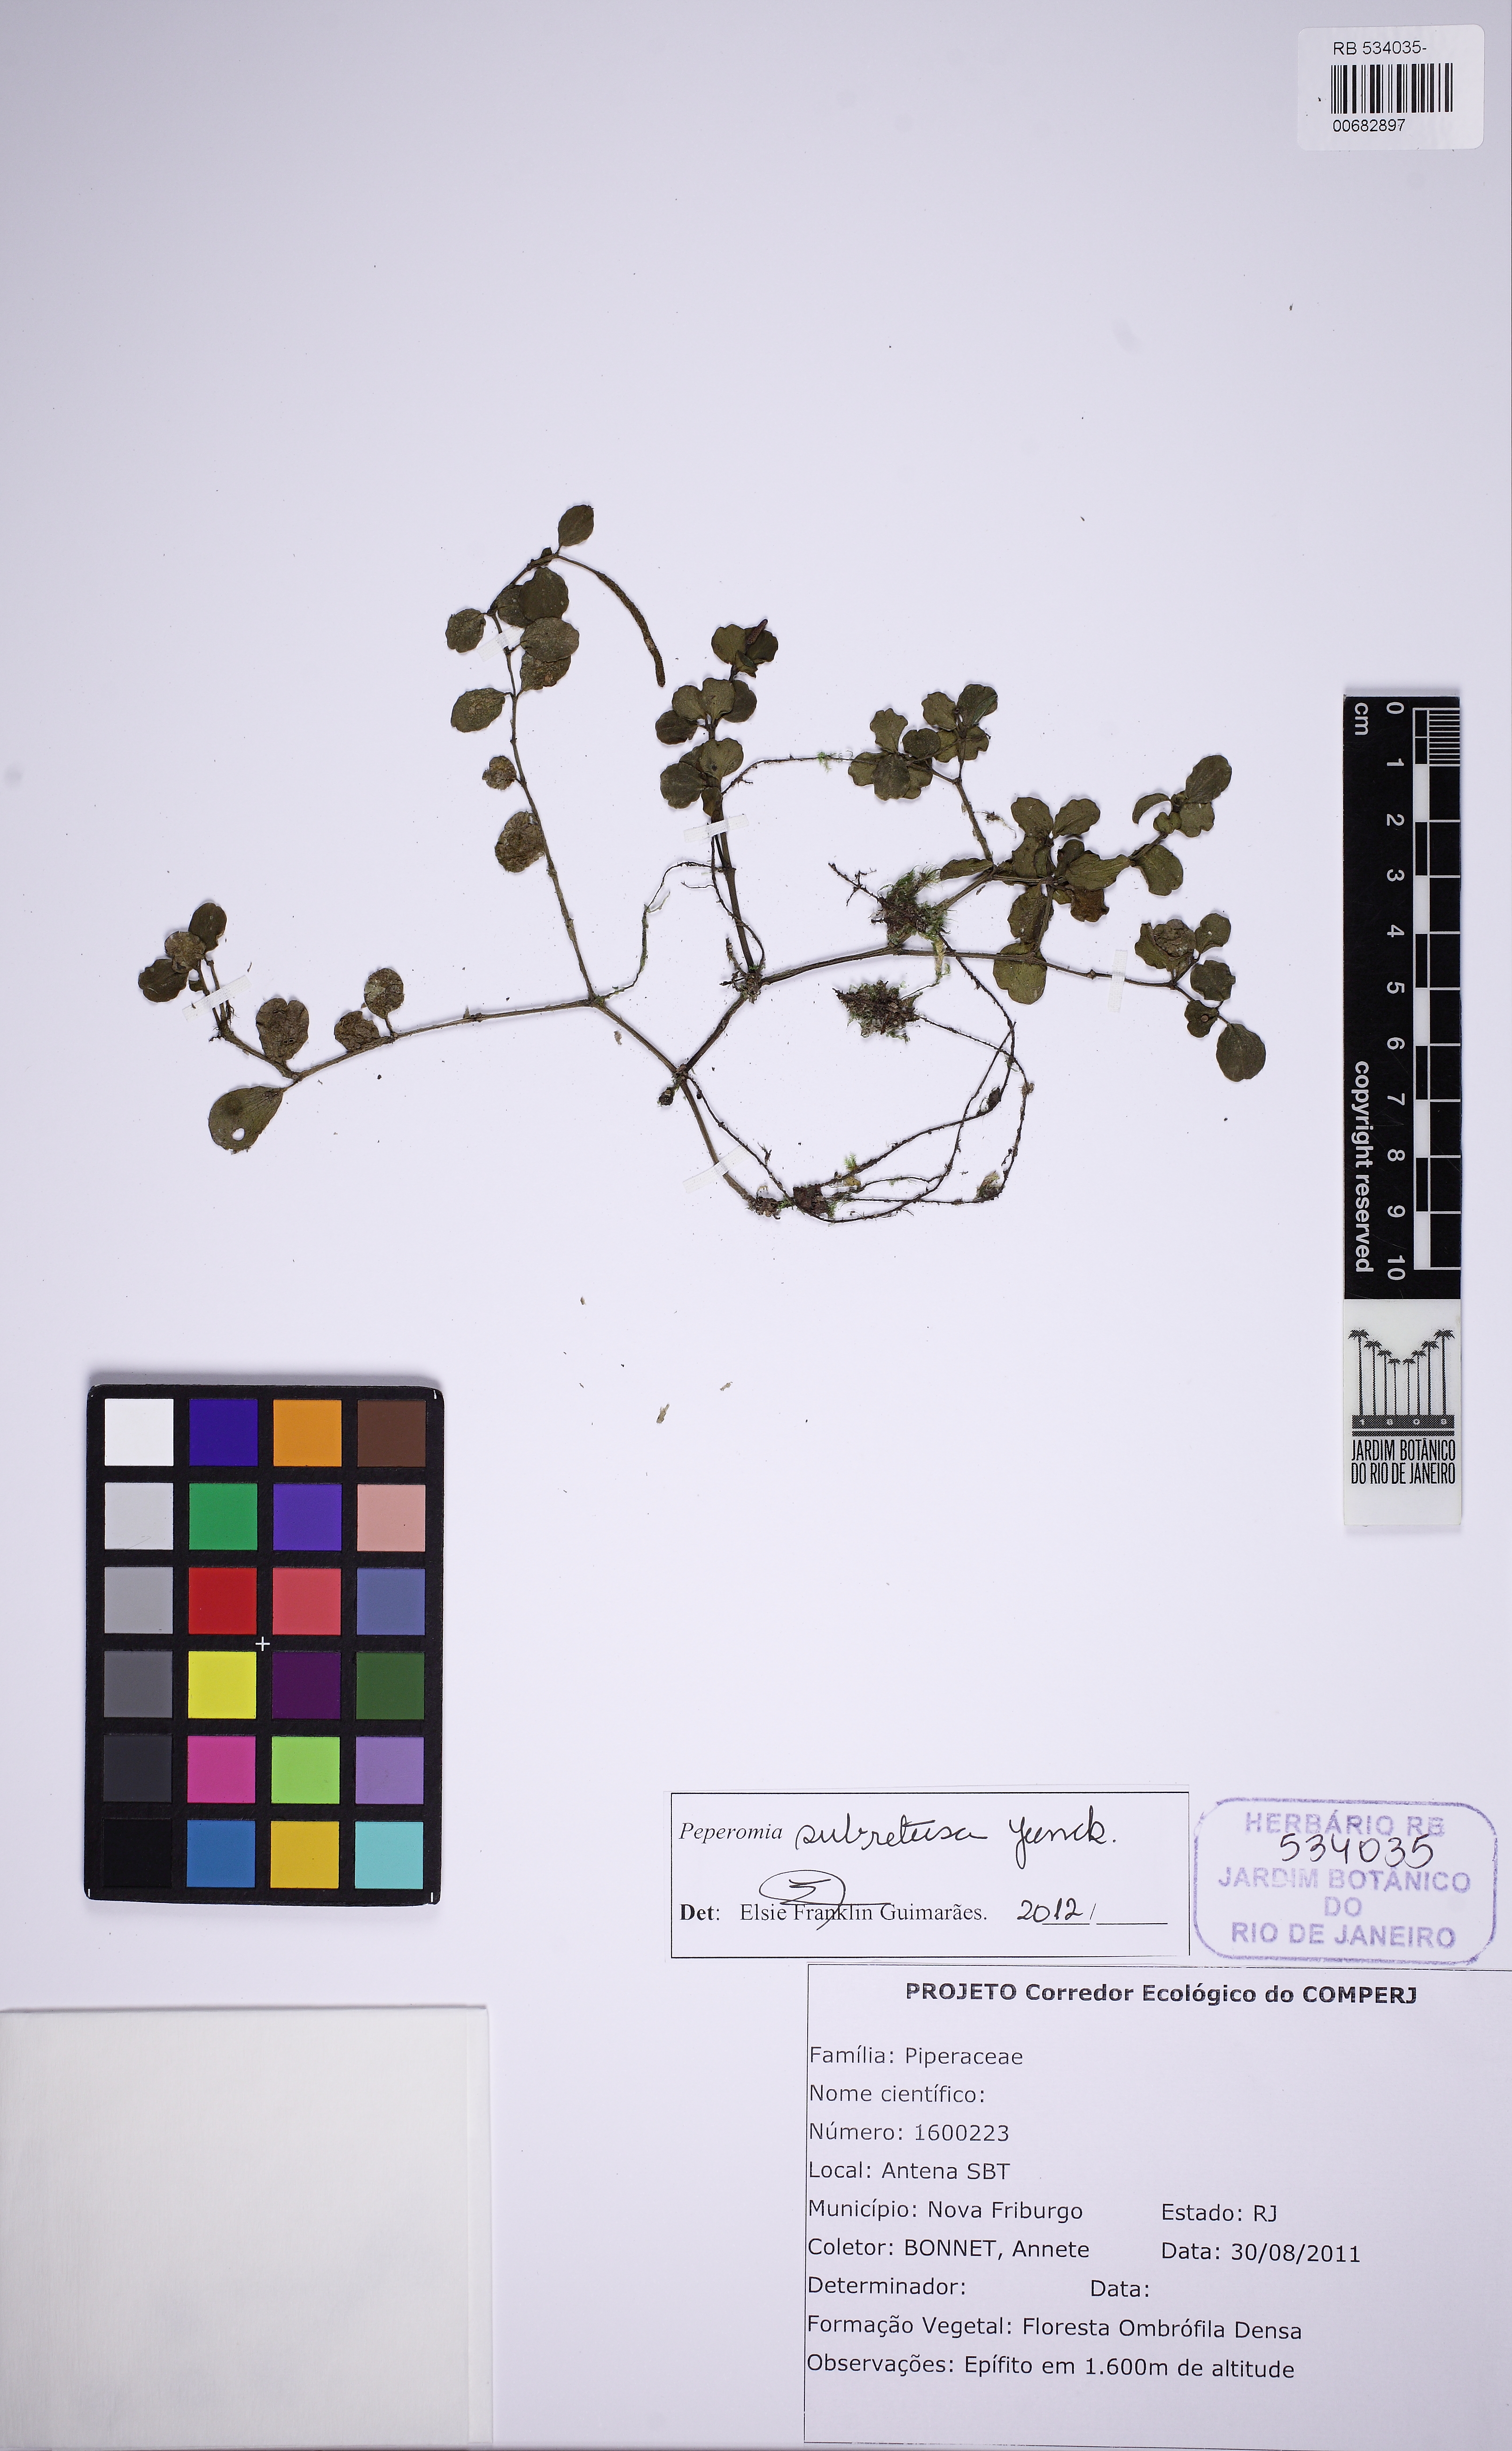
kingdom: Plantae
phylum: Tracheophyta
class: Magnoliopsida
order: Piperales
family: Piperaceae
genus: Peperomia
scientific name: Peperomia subretusa
